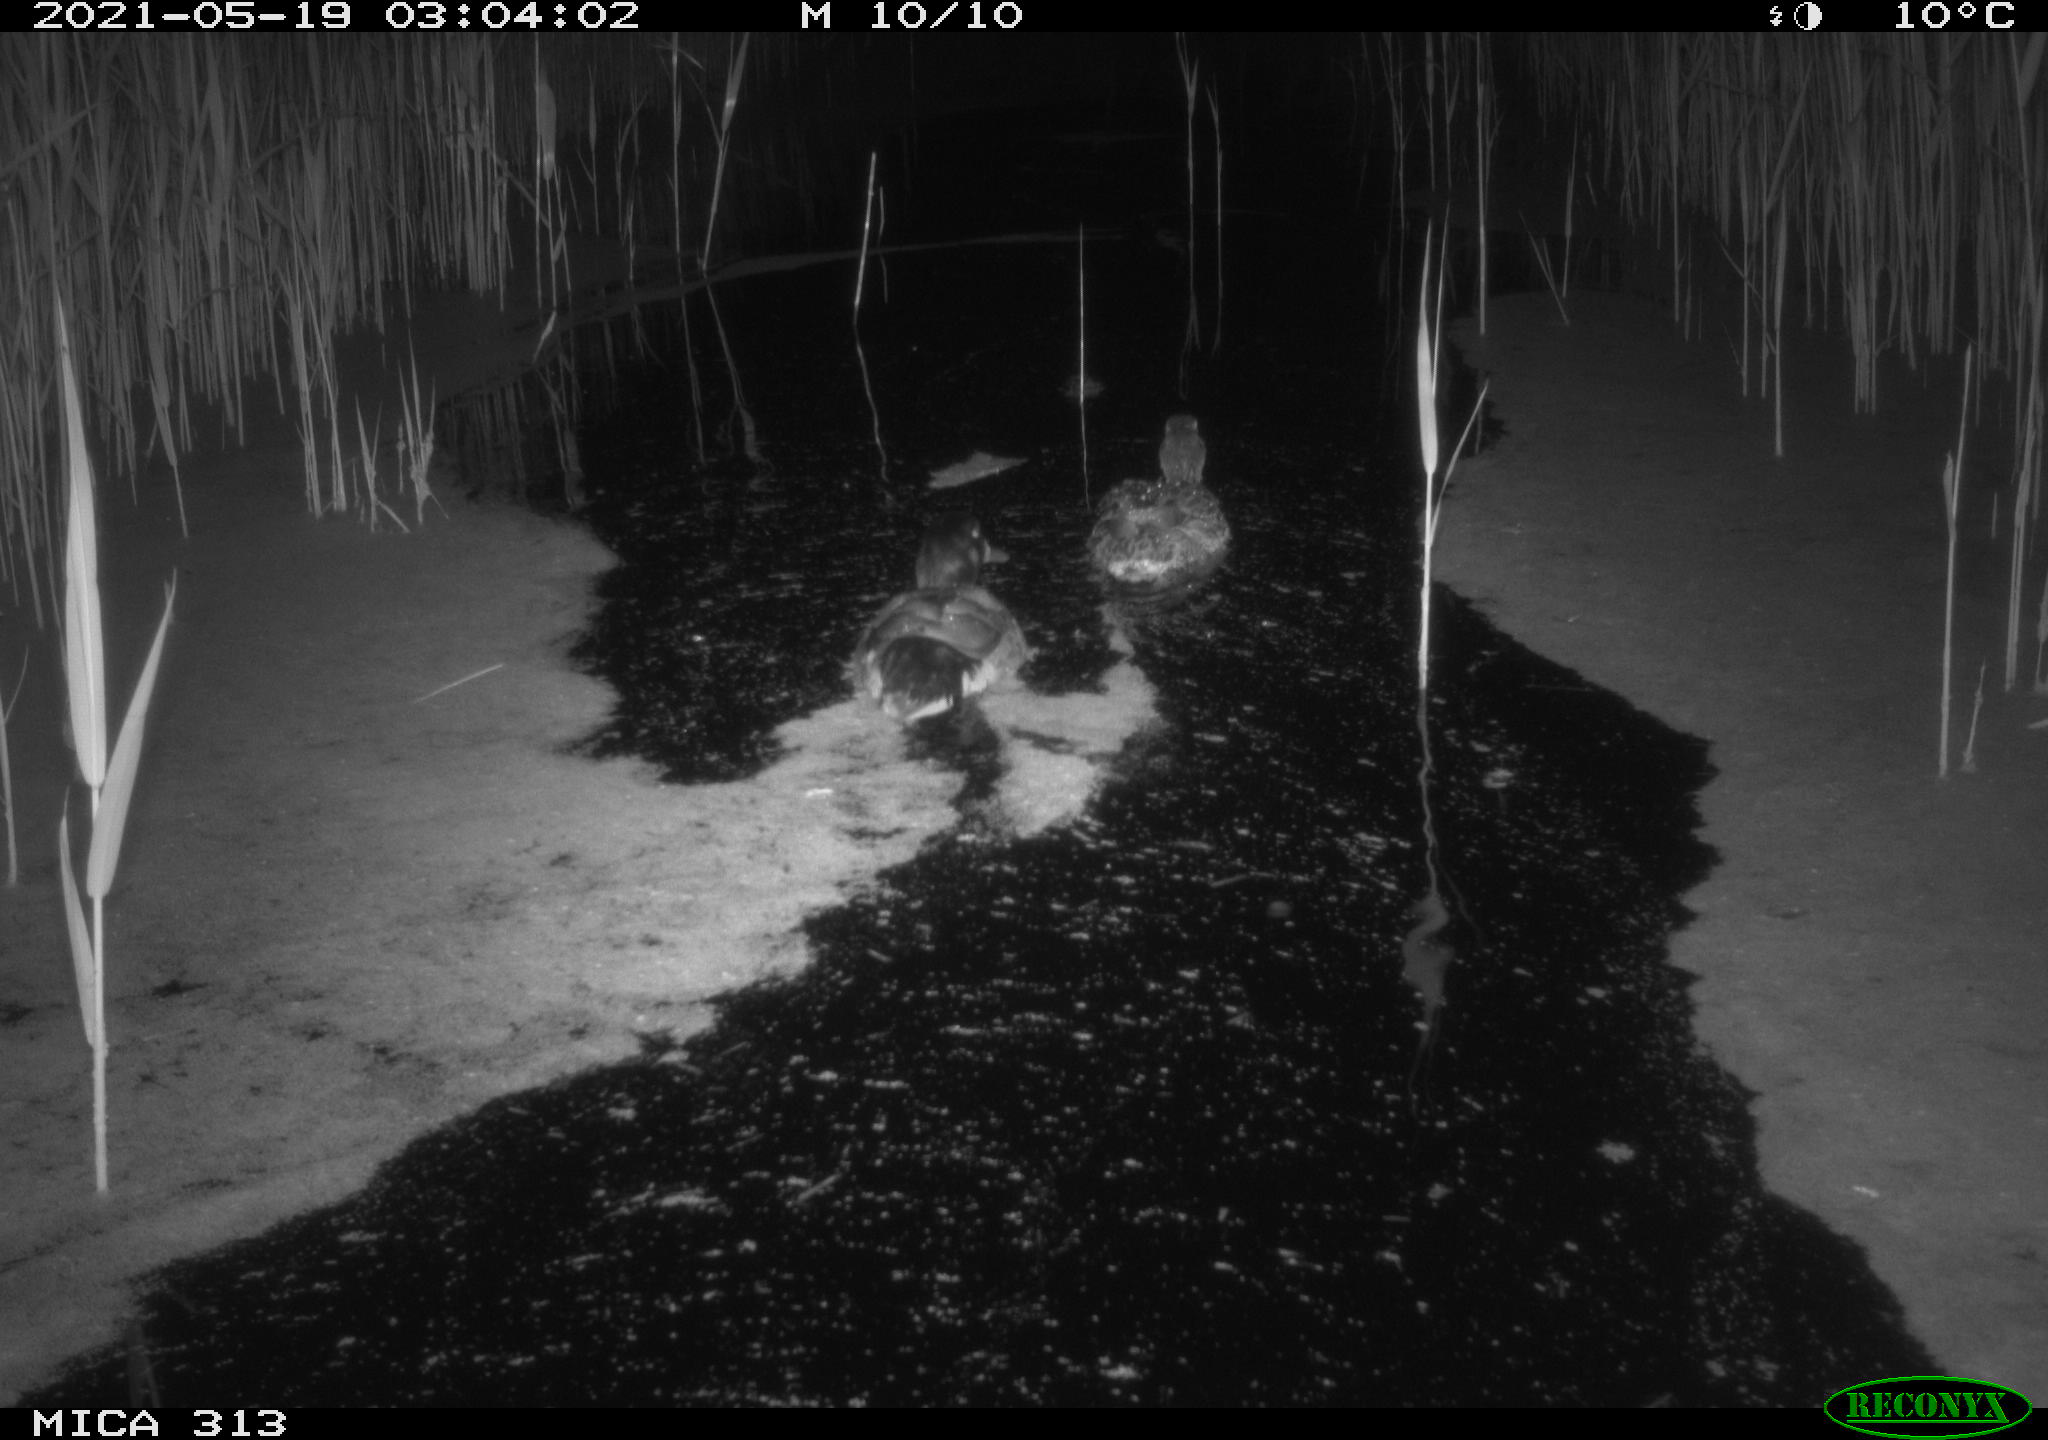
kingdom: Animalia
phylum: Chordata
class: Aves
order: Anseriformes
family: Anatidae
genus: Anas
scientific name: Anas platyrhynchos
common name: Mallard
